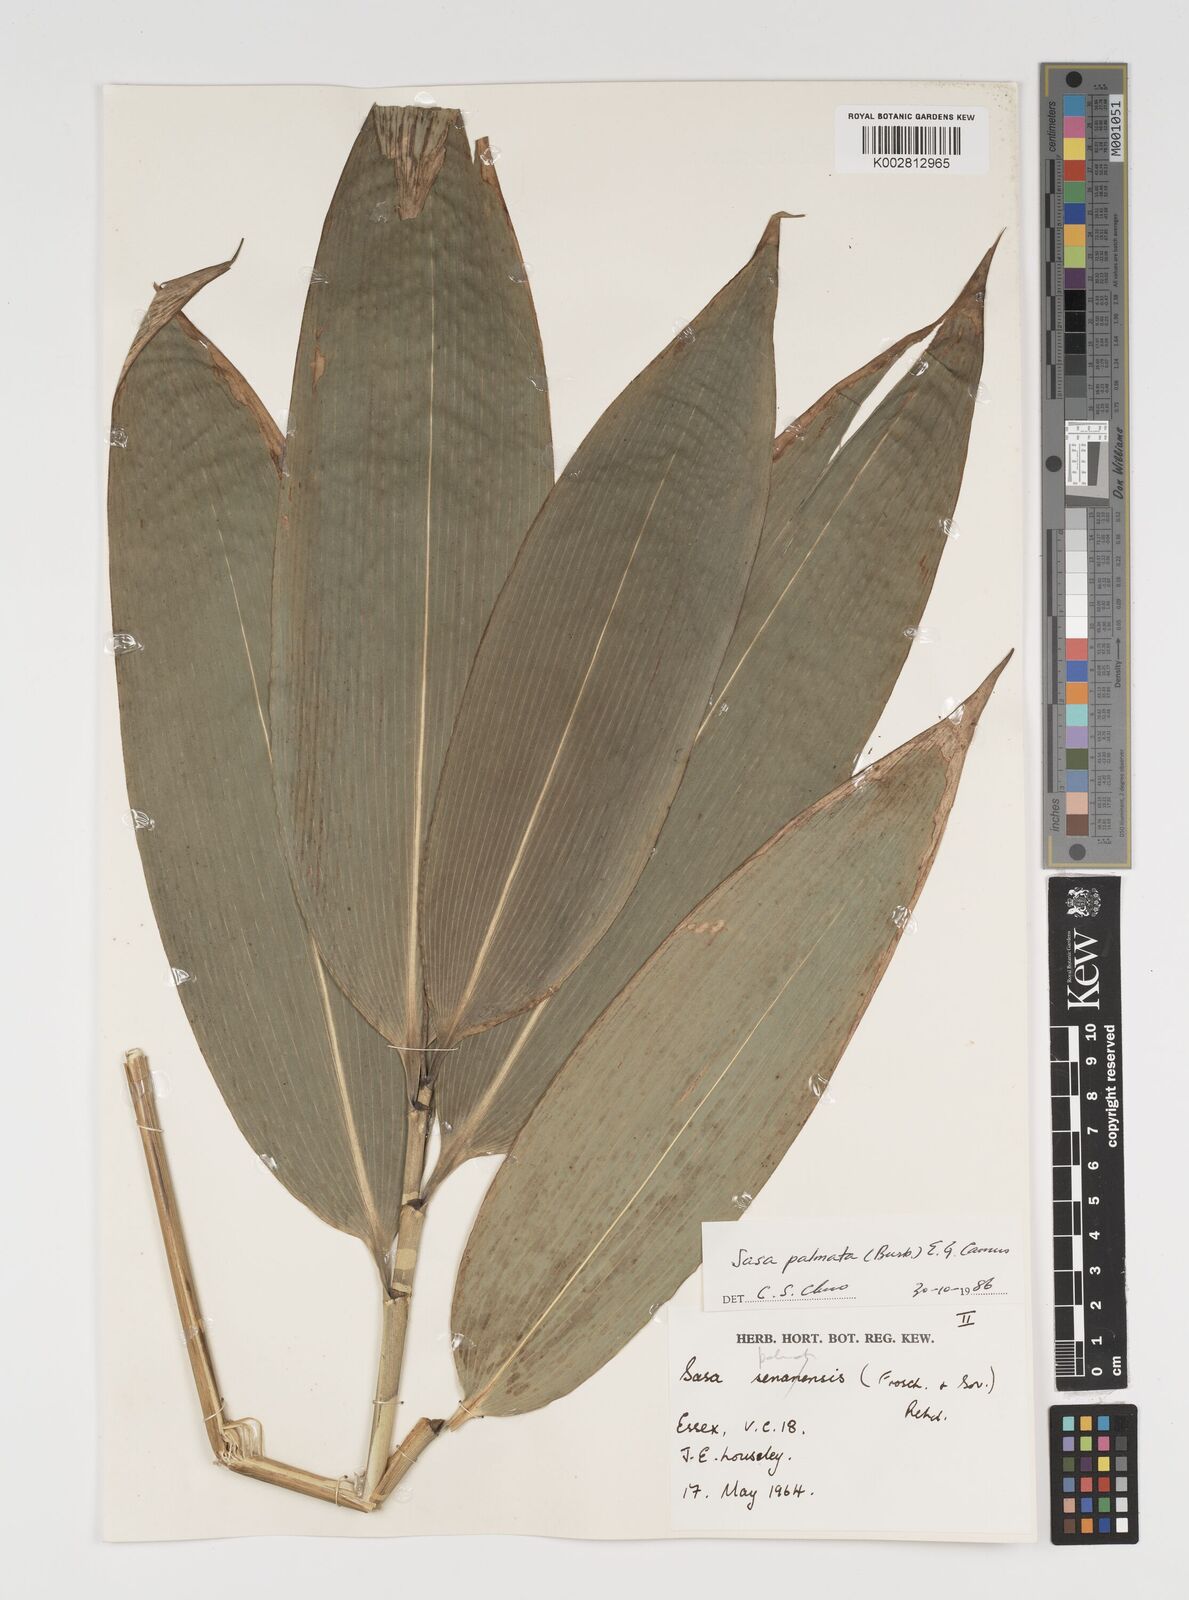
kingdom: Plantae
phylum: Tracheophyta
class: Liliopsida
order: Poales
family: Poaceae
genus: Sasa
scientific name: Sasa palmata
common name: Broad-leaved bamboo
